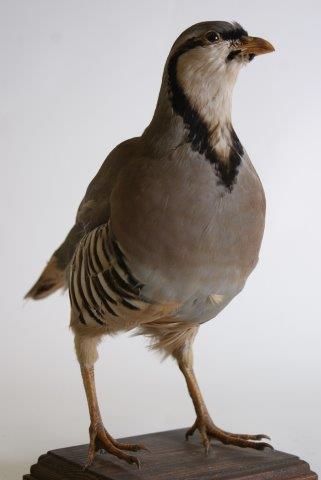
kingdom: Animalia
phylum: Chordata
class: Aves
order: Galliformes
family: Phasianidae
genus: Alectoris
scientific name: Alectoris chukar
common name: Aziatische steenpatrijs
